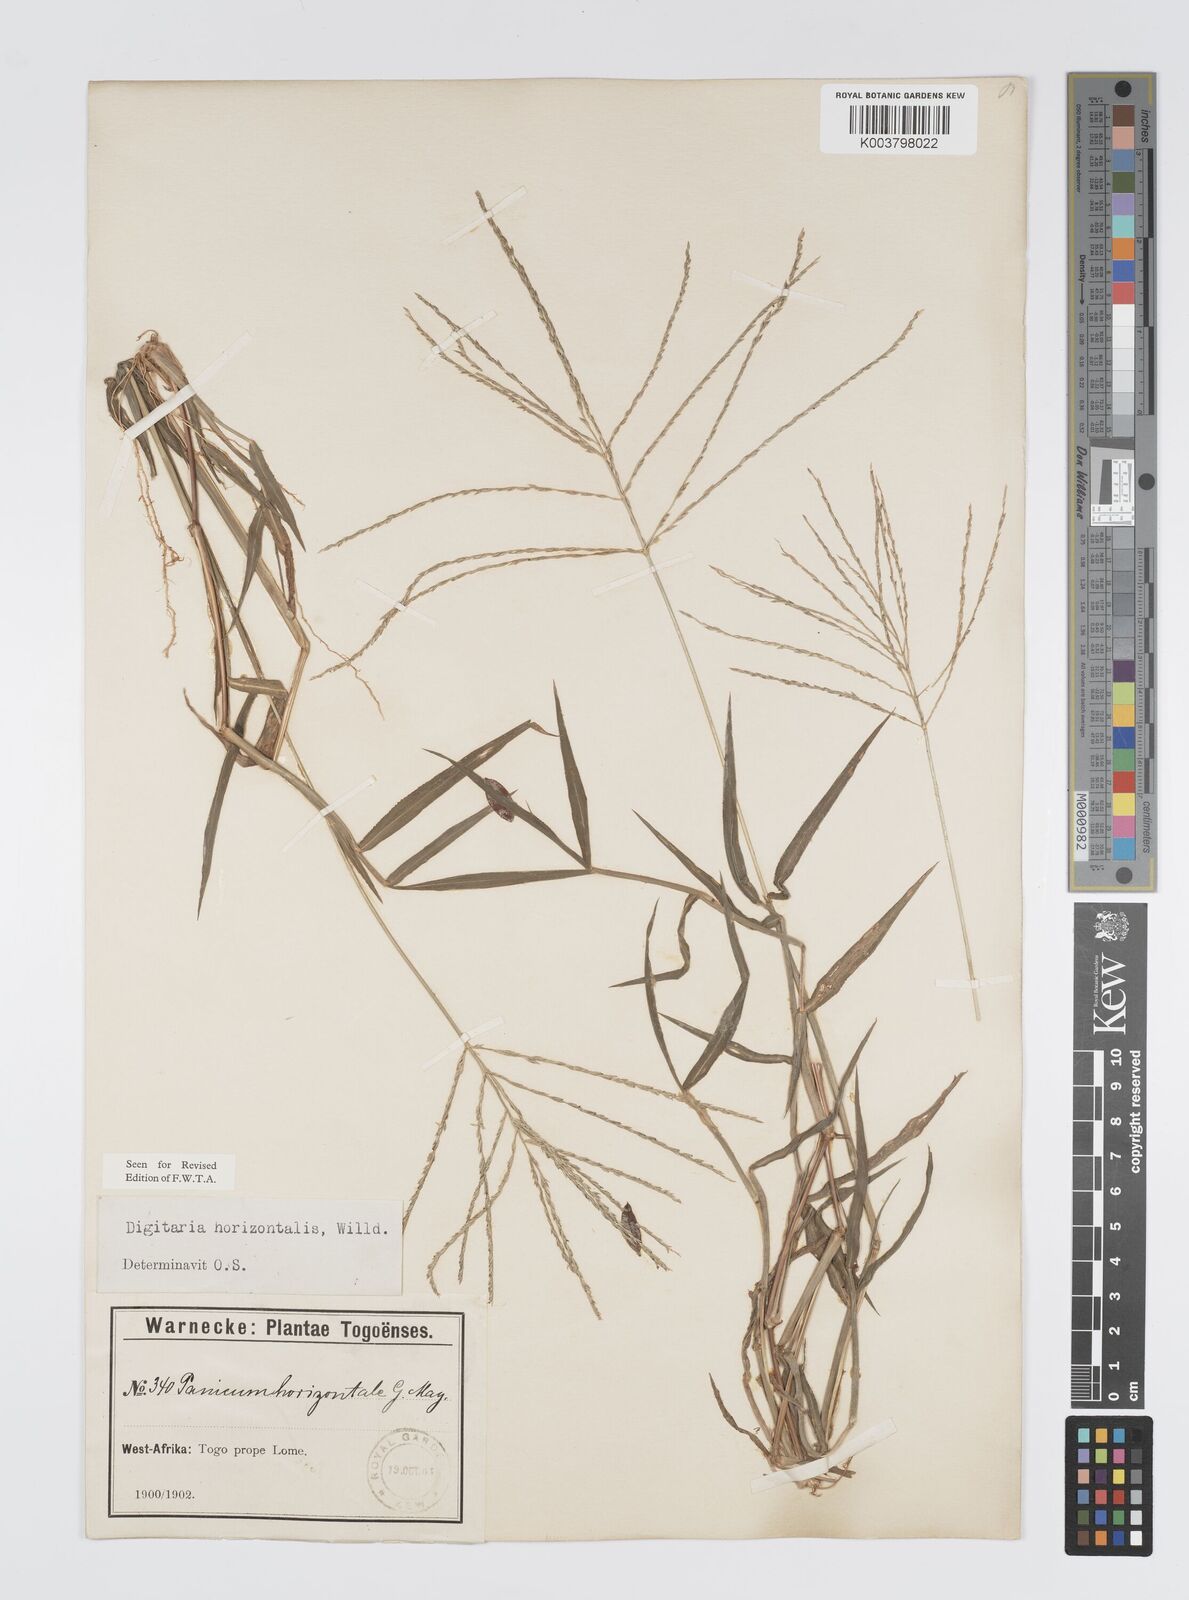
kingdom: Plantae
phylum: Tracheophyta
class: Liliopsida
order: Poales
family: Poaceae
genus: Digitaria
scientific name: Digitaria horizontalis
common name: Jamaican crabgrass
